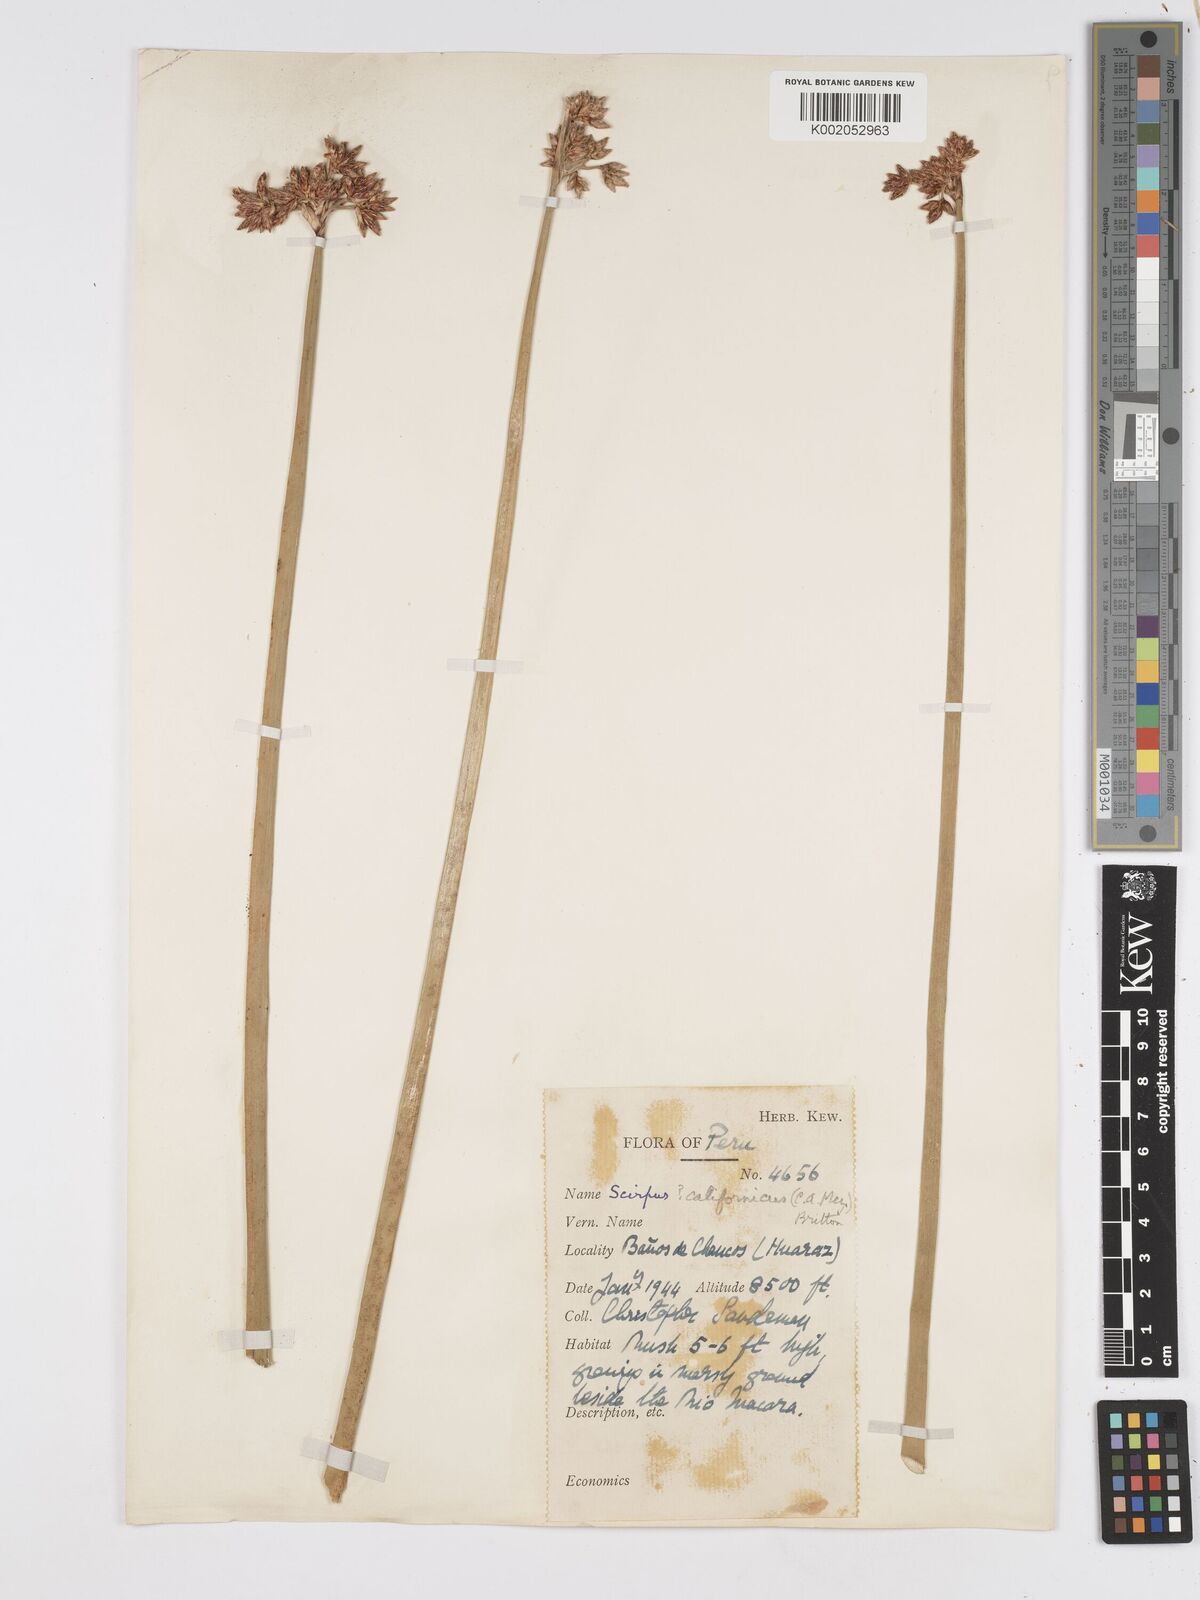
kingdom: Plantae
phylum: Tracheophyta
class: Liliopsida
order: Poales
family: Cyperaceae
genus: Scirpus
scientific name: Scirpus
